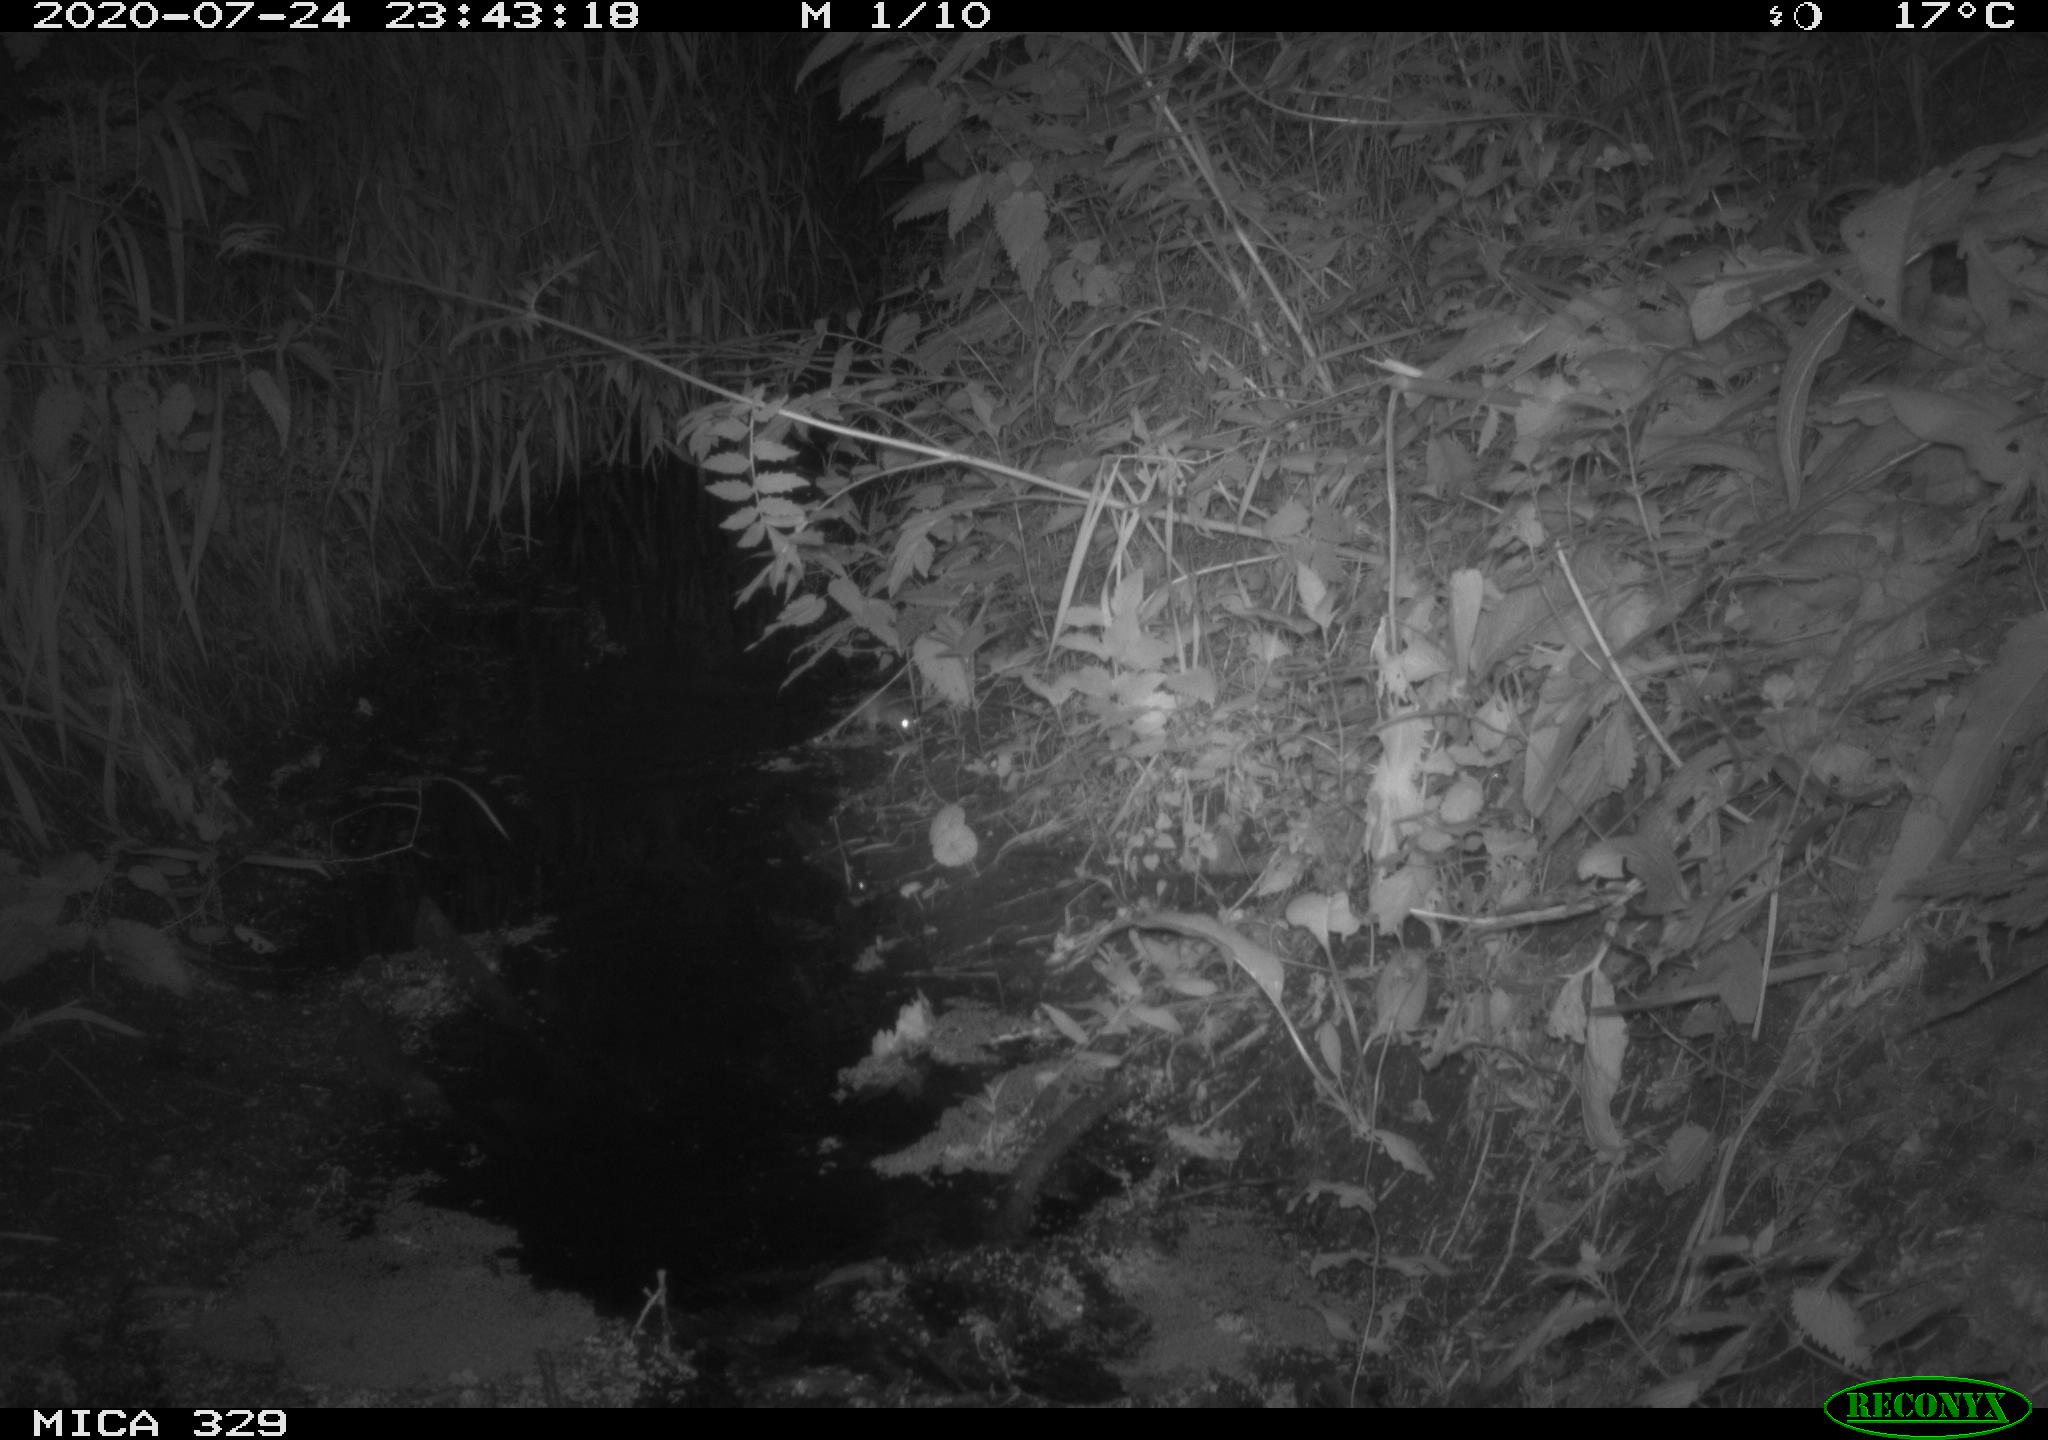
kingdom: Animalia
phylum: Chordata
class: Mammalia
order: Rodentia
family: Muridae
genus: Rattus
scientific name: Rattus norvegicus
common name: Brown rat
